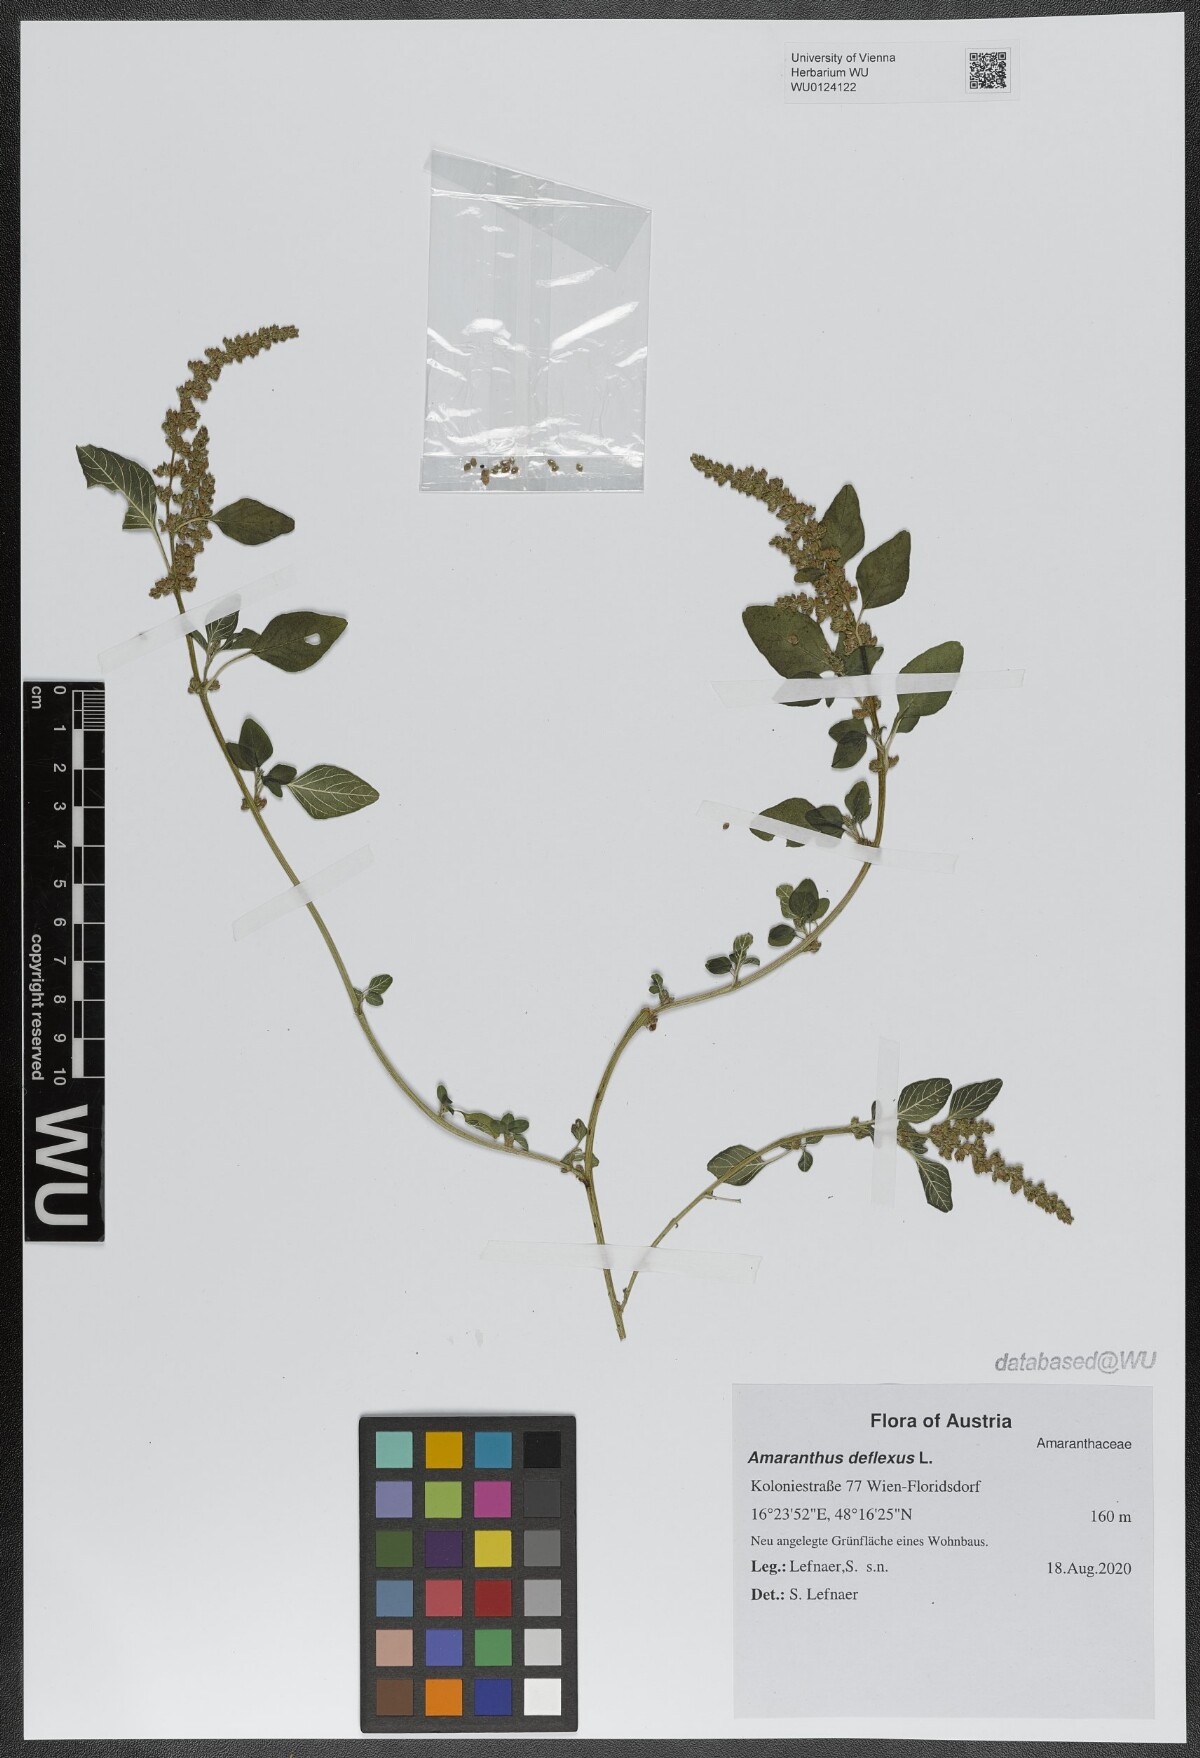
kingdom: Plantae
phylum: Tracheophyta
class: Magnoliopsida
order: Caryophyllales
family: Amaranthaceae
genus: Amaranthus
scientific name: Amaranthus albus
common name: White pigweed
